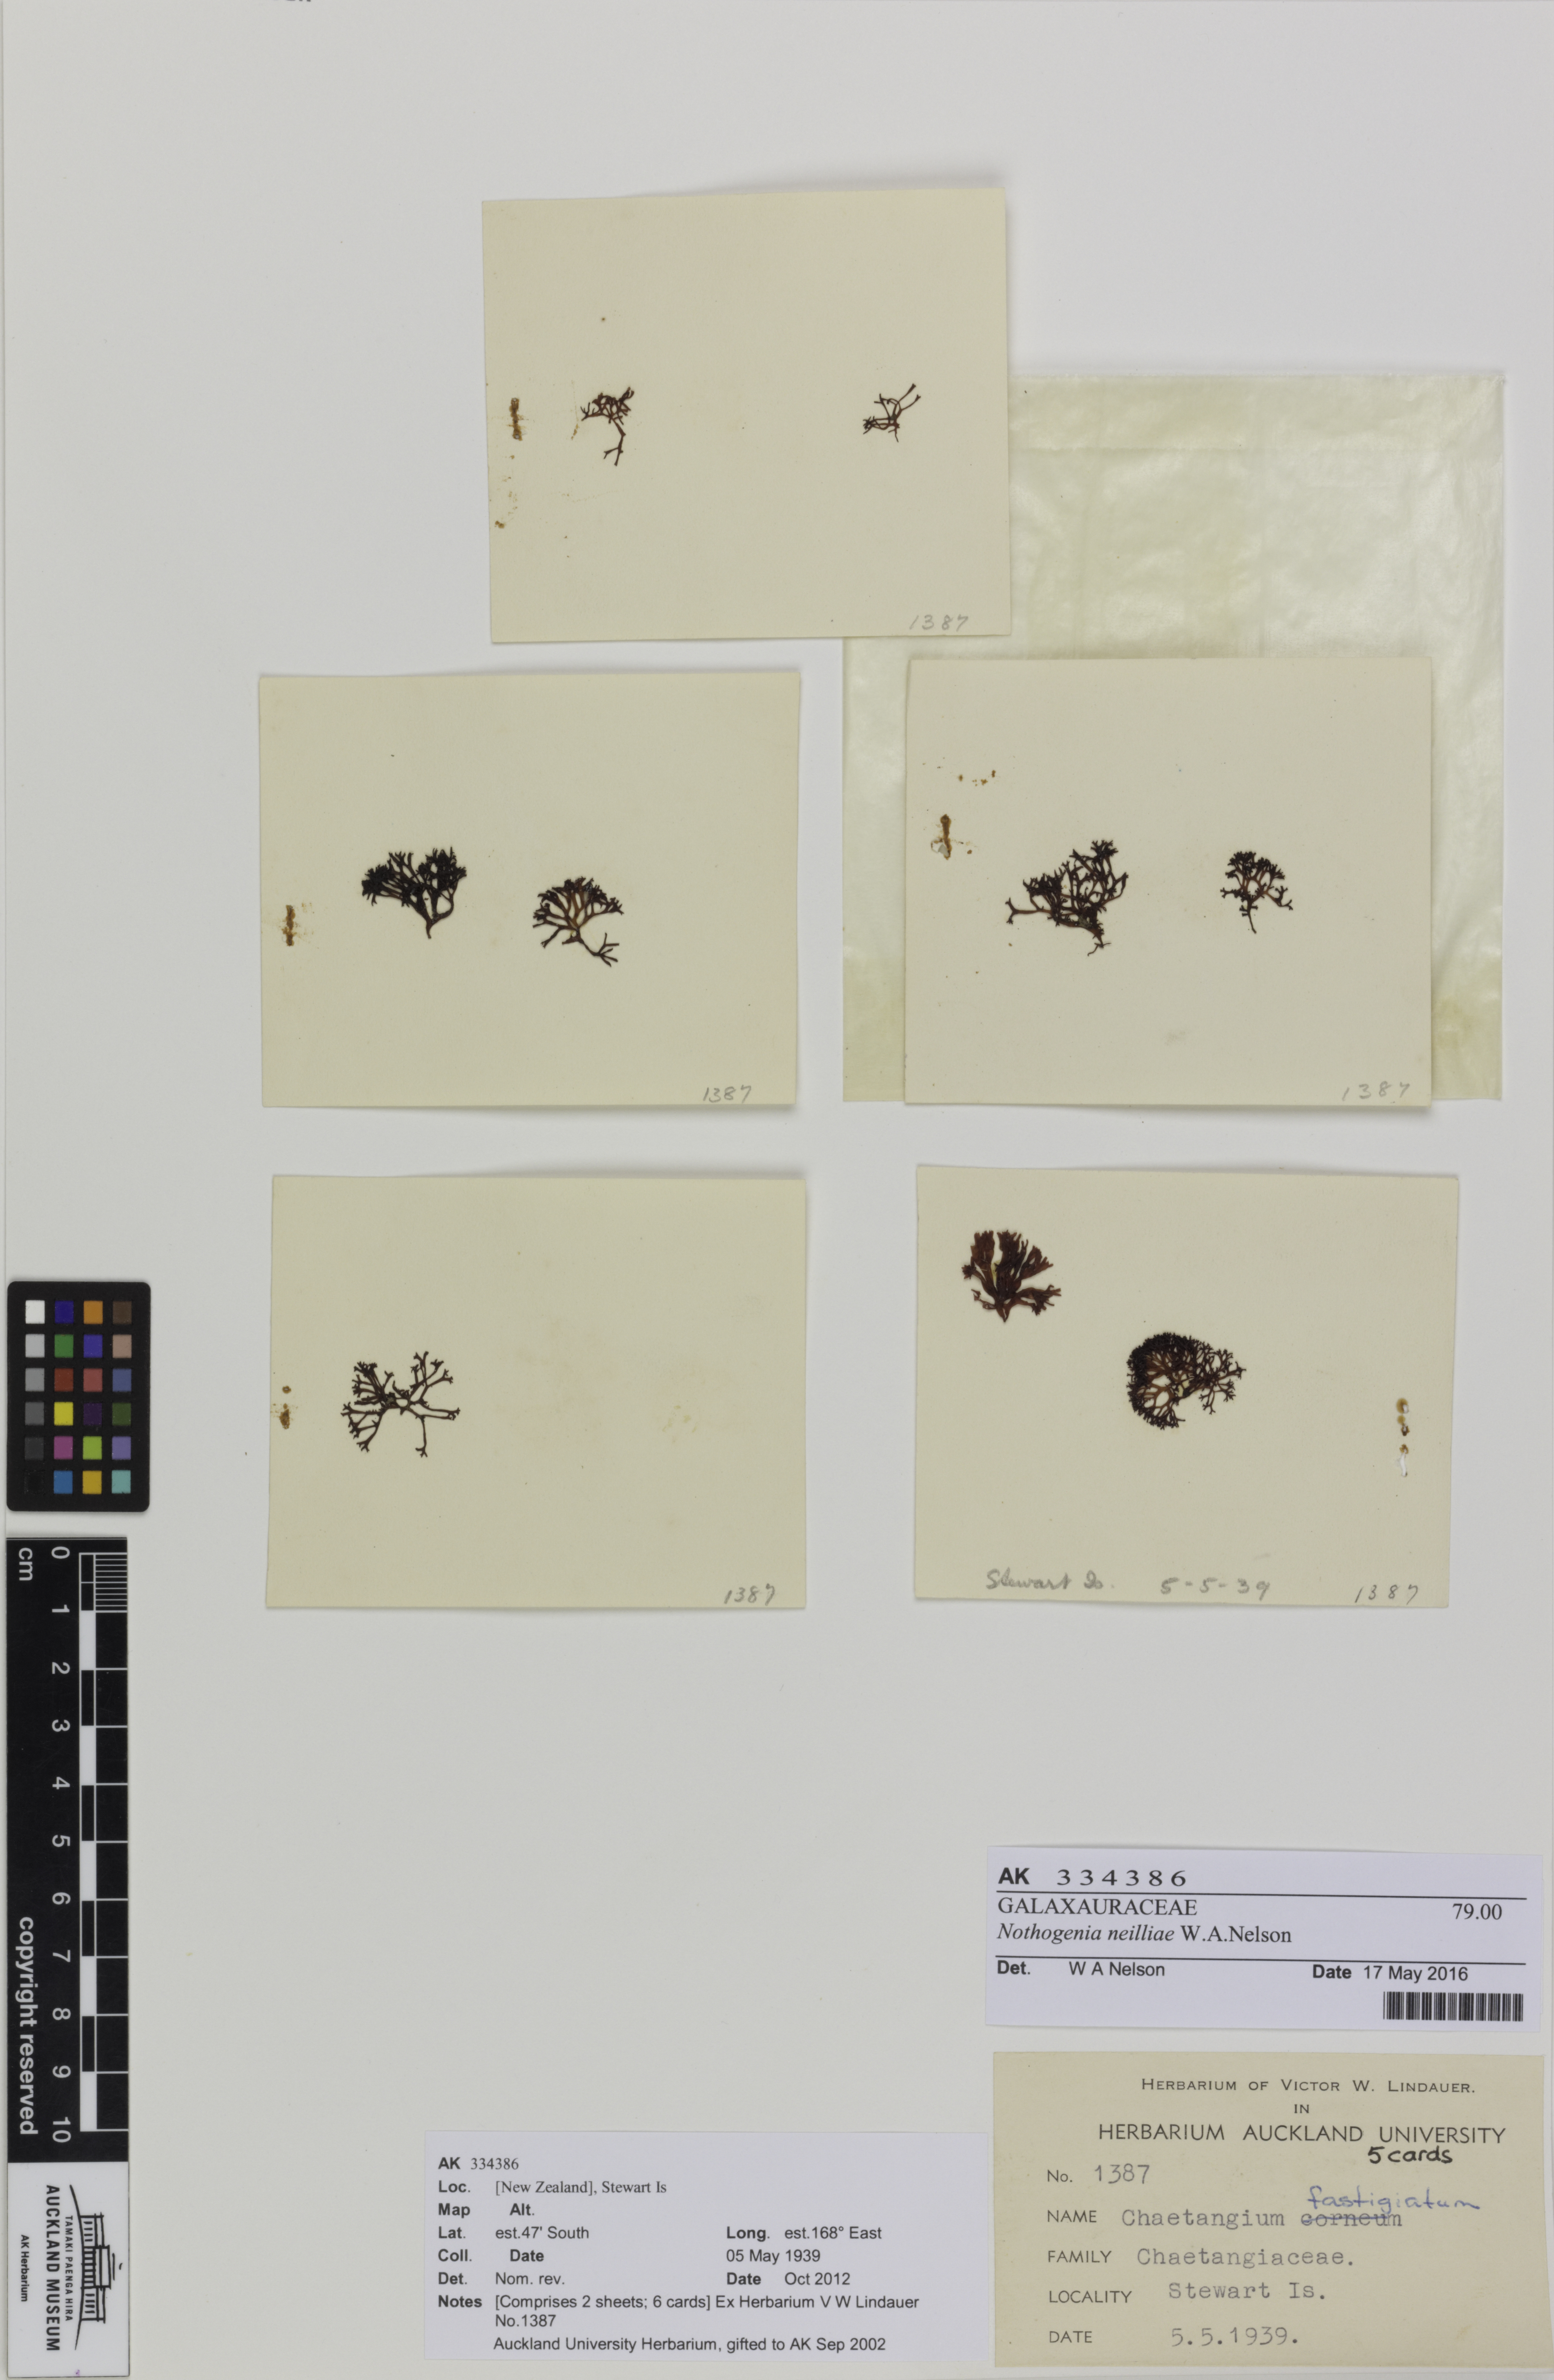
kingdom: Plantae
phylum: Rhodophyta
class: Florideophyceae
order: Nemaliales
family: Scinaiaceae
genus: Nothogenia
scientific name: Nothogenia neilliae
